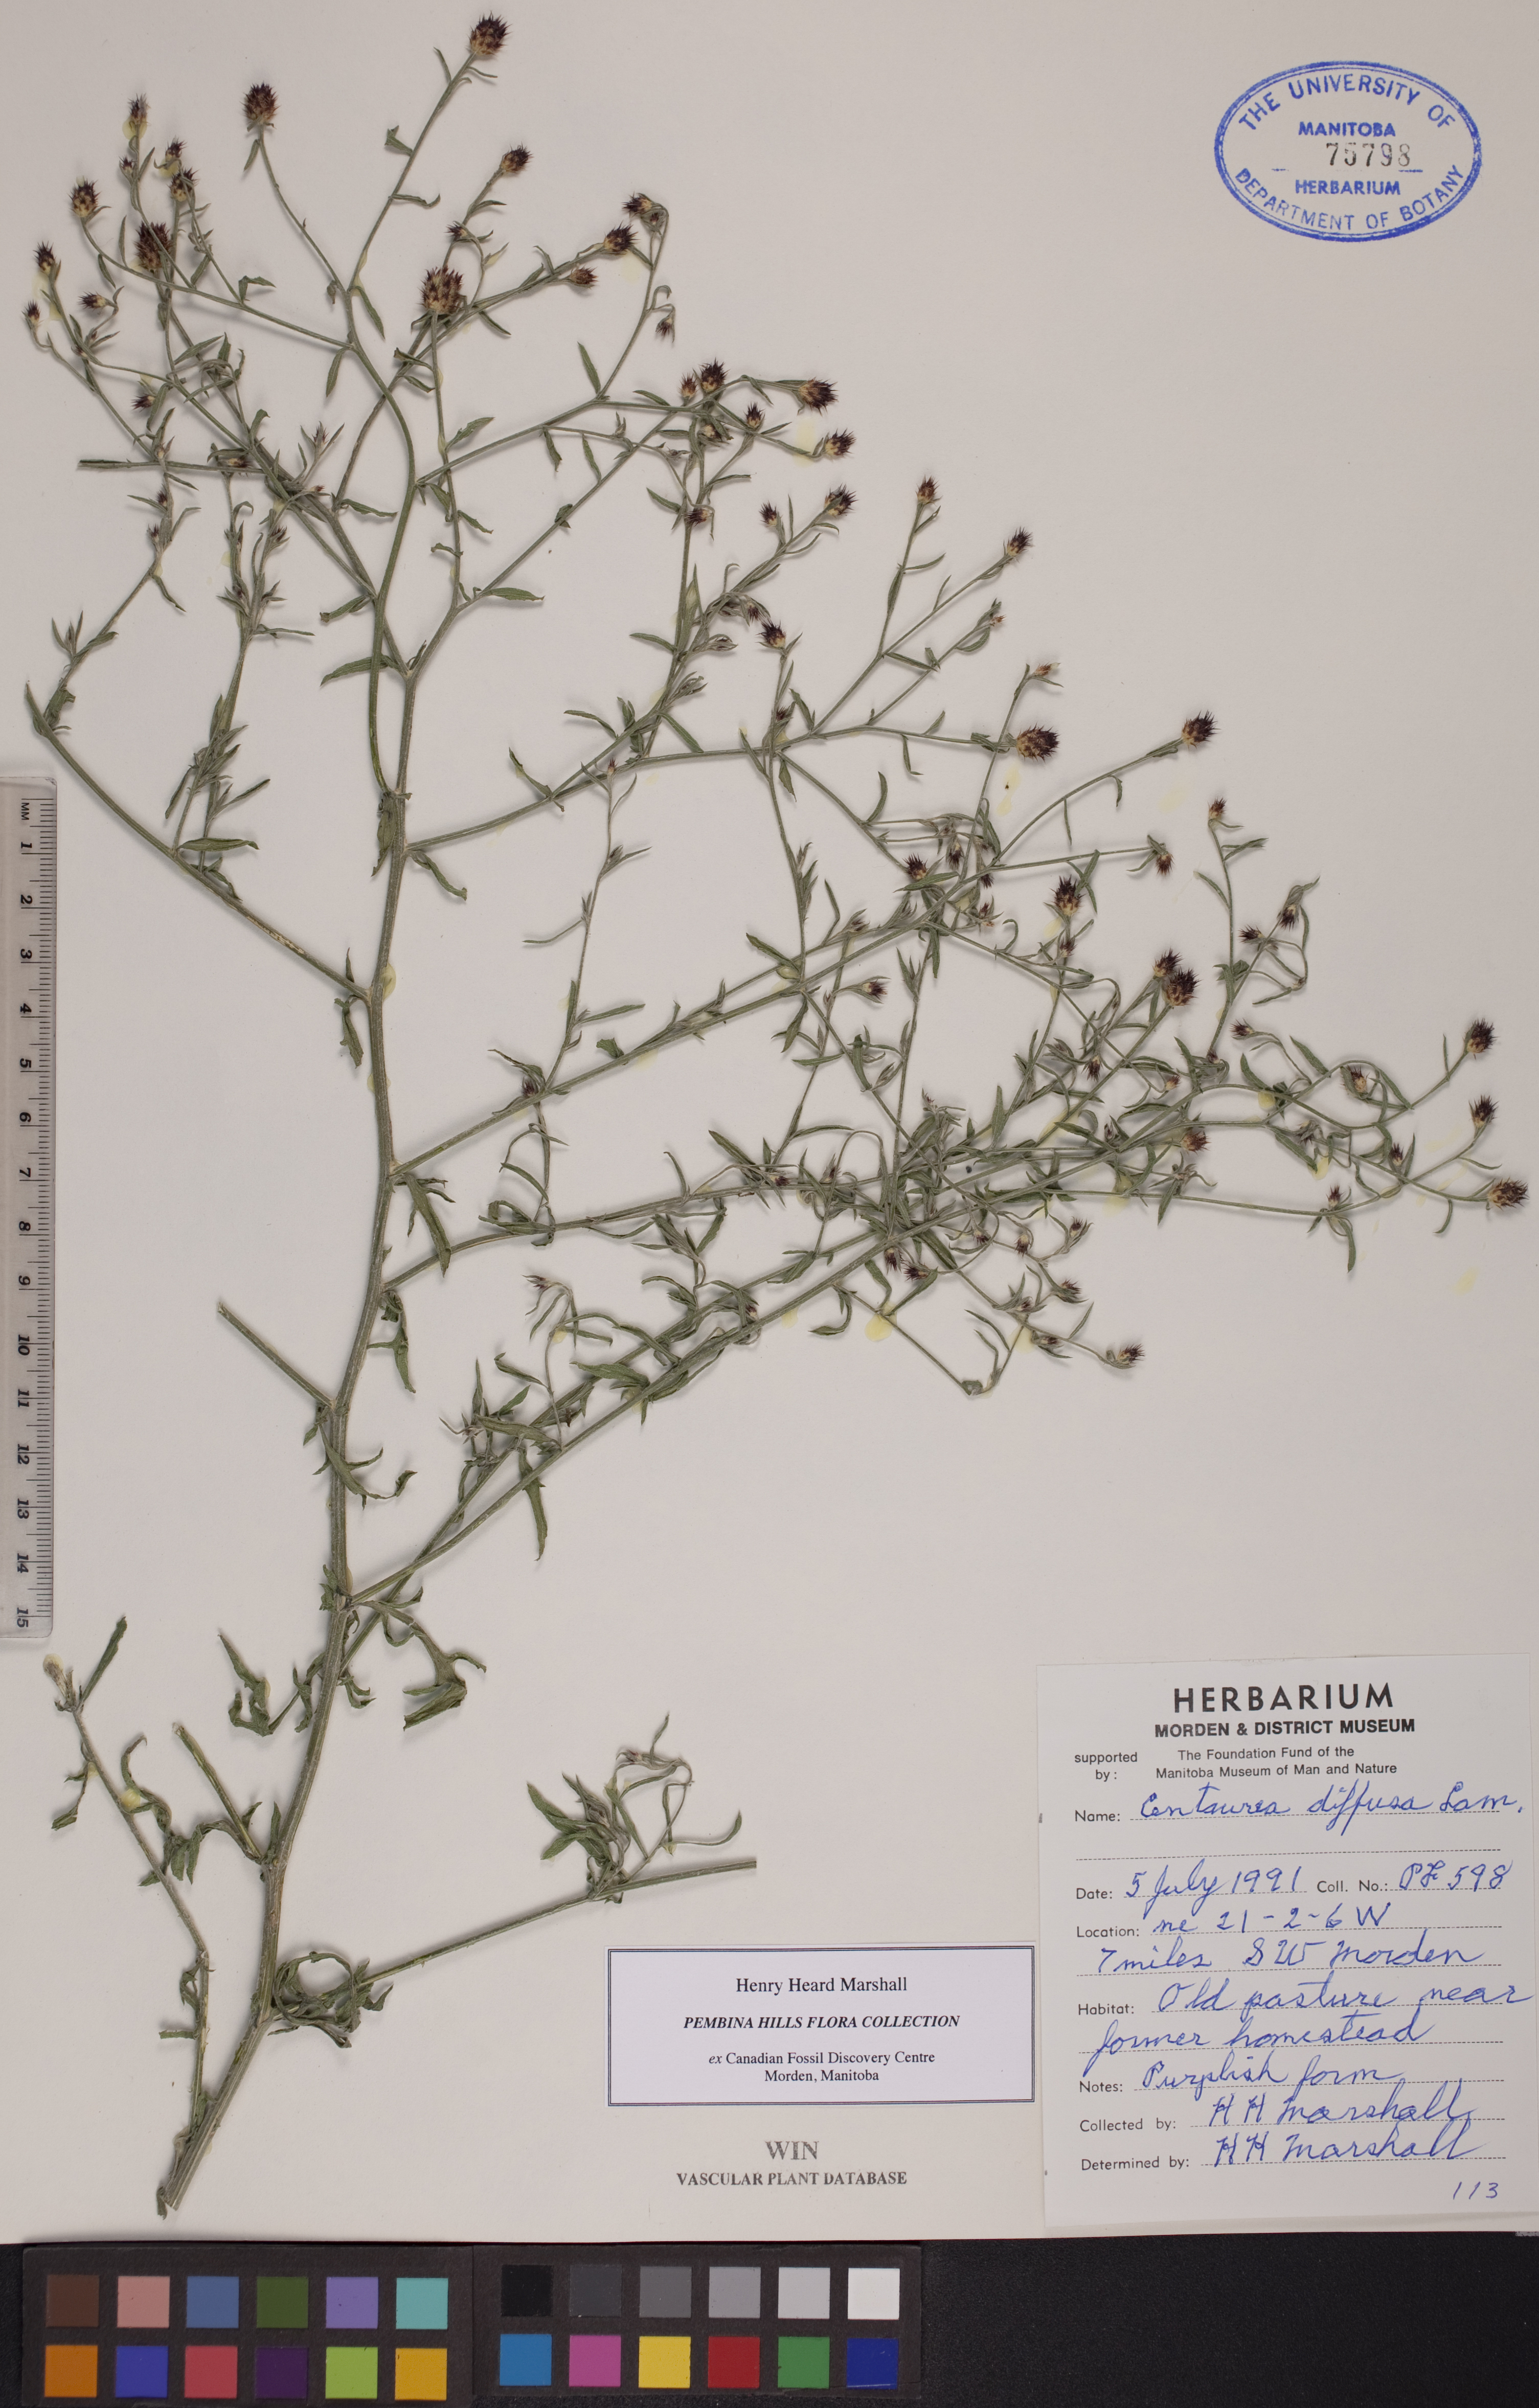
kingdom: Plantae
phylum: Tracheophyta
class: Magnoliopsida
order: Asterales
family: Asteraceae
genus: Centaurea
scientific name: Centaurea diffusa
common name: Diffuse knapweed
